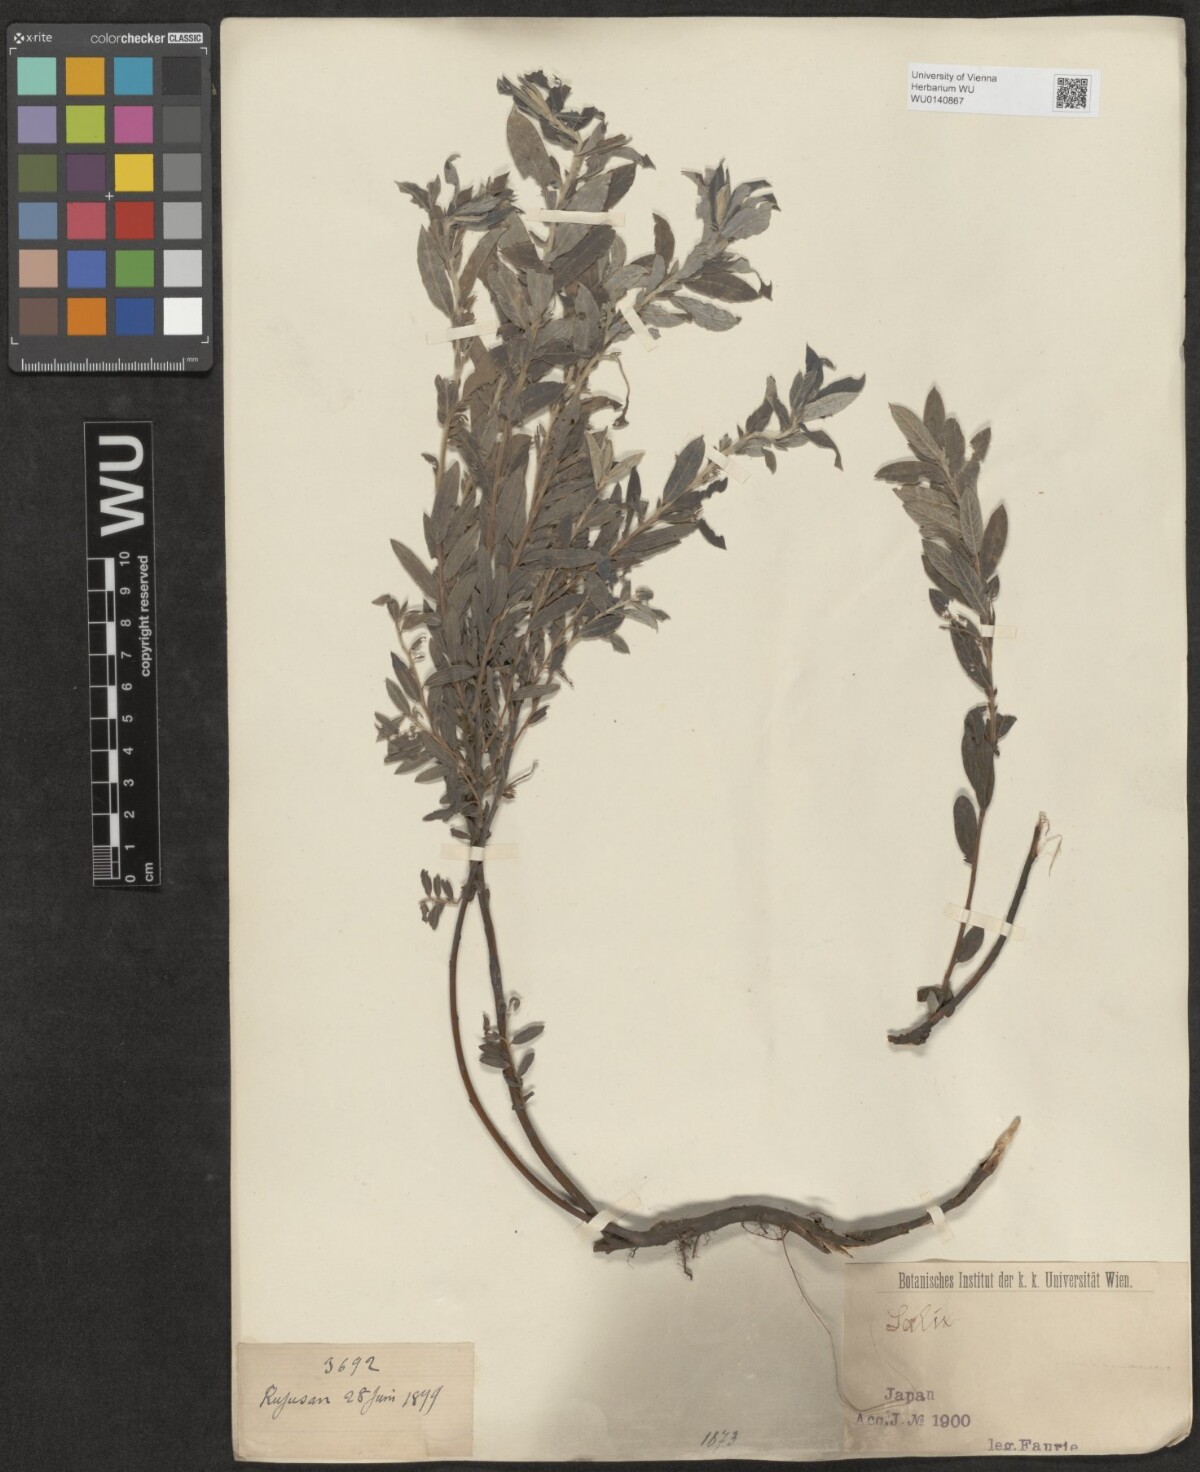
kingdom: Plantae
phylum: Tracheophyta
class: Magnoliopsida
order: Malpighiales
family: Salicaceae
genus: Salix
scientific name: Salix
